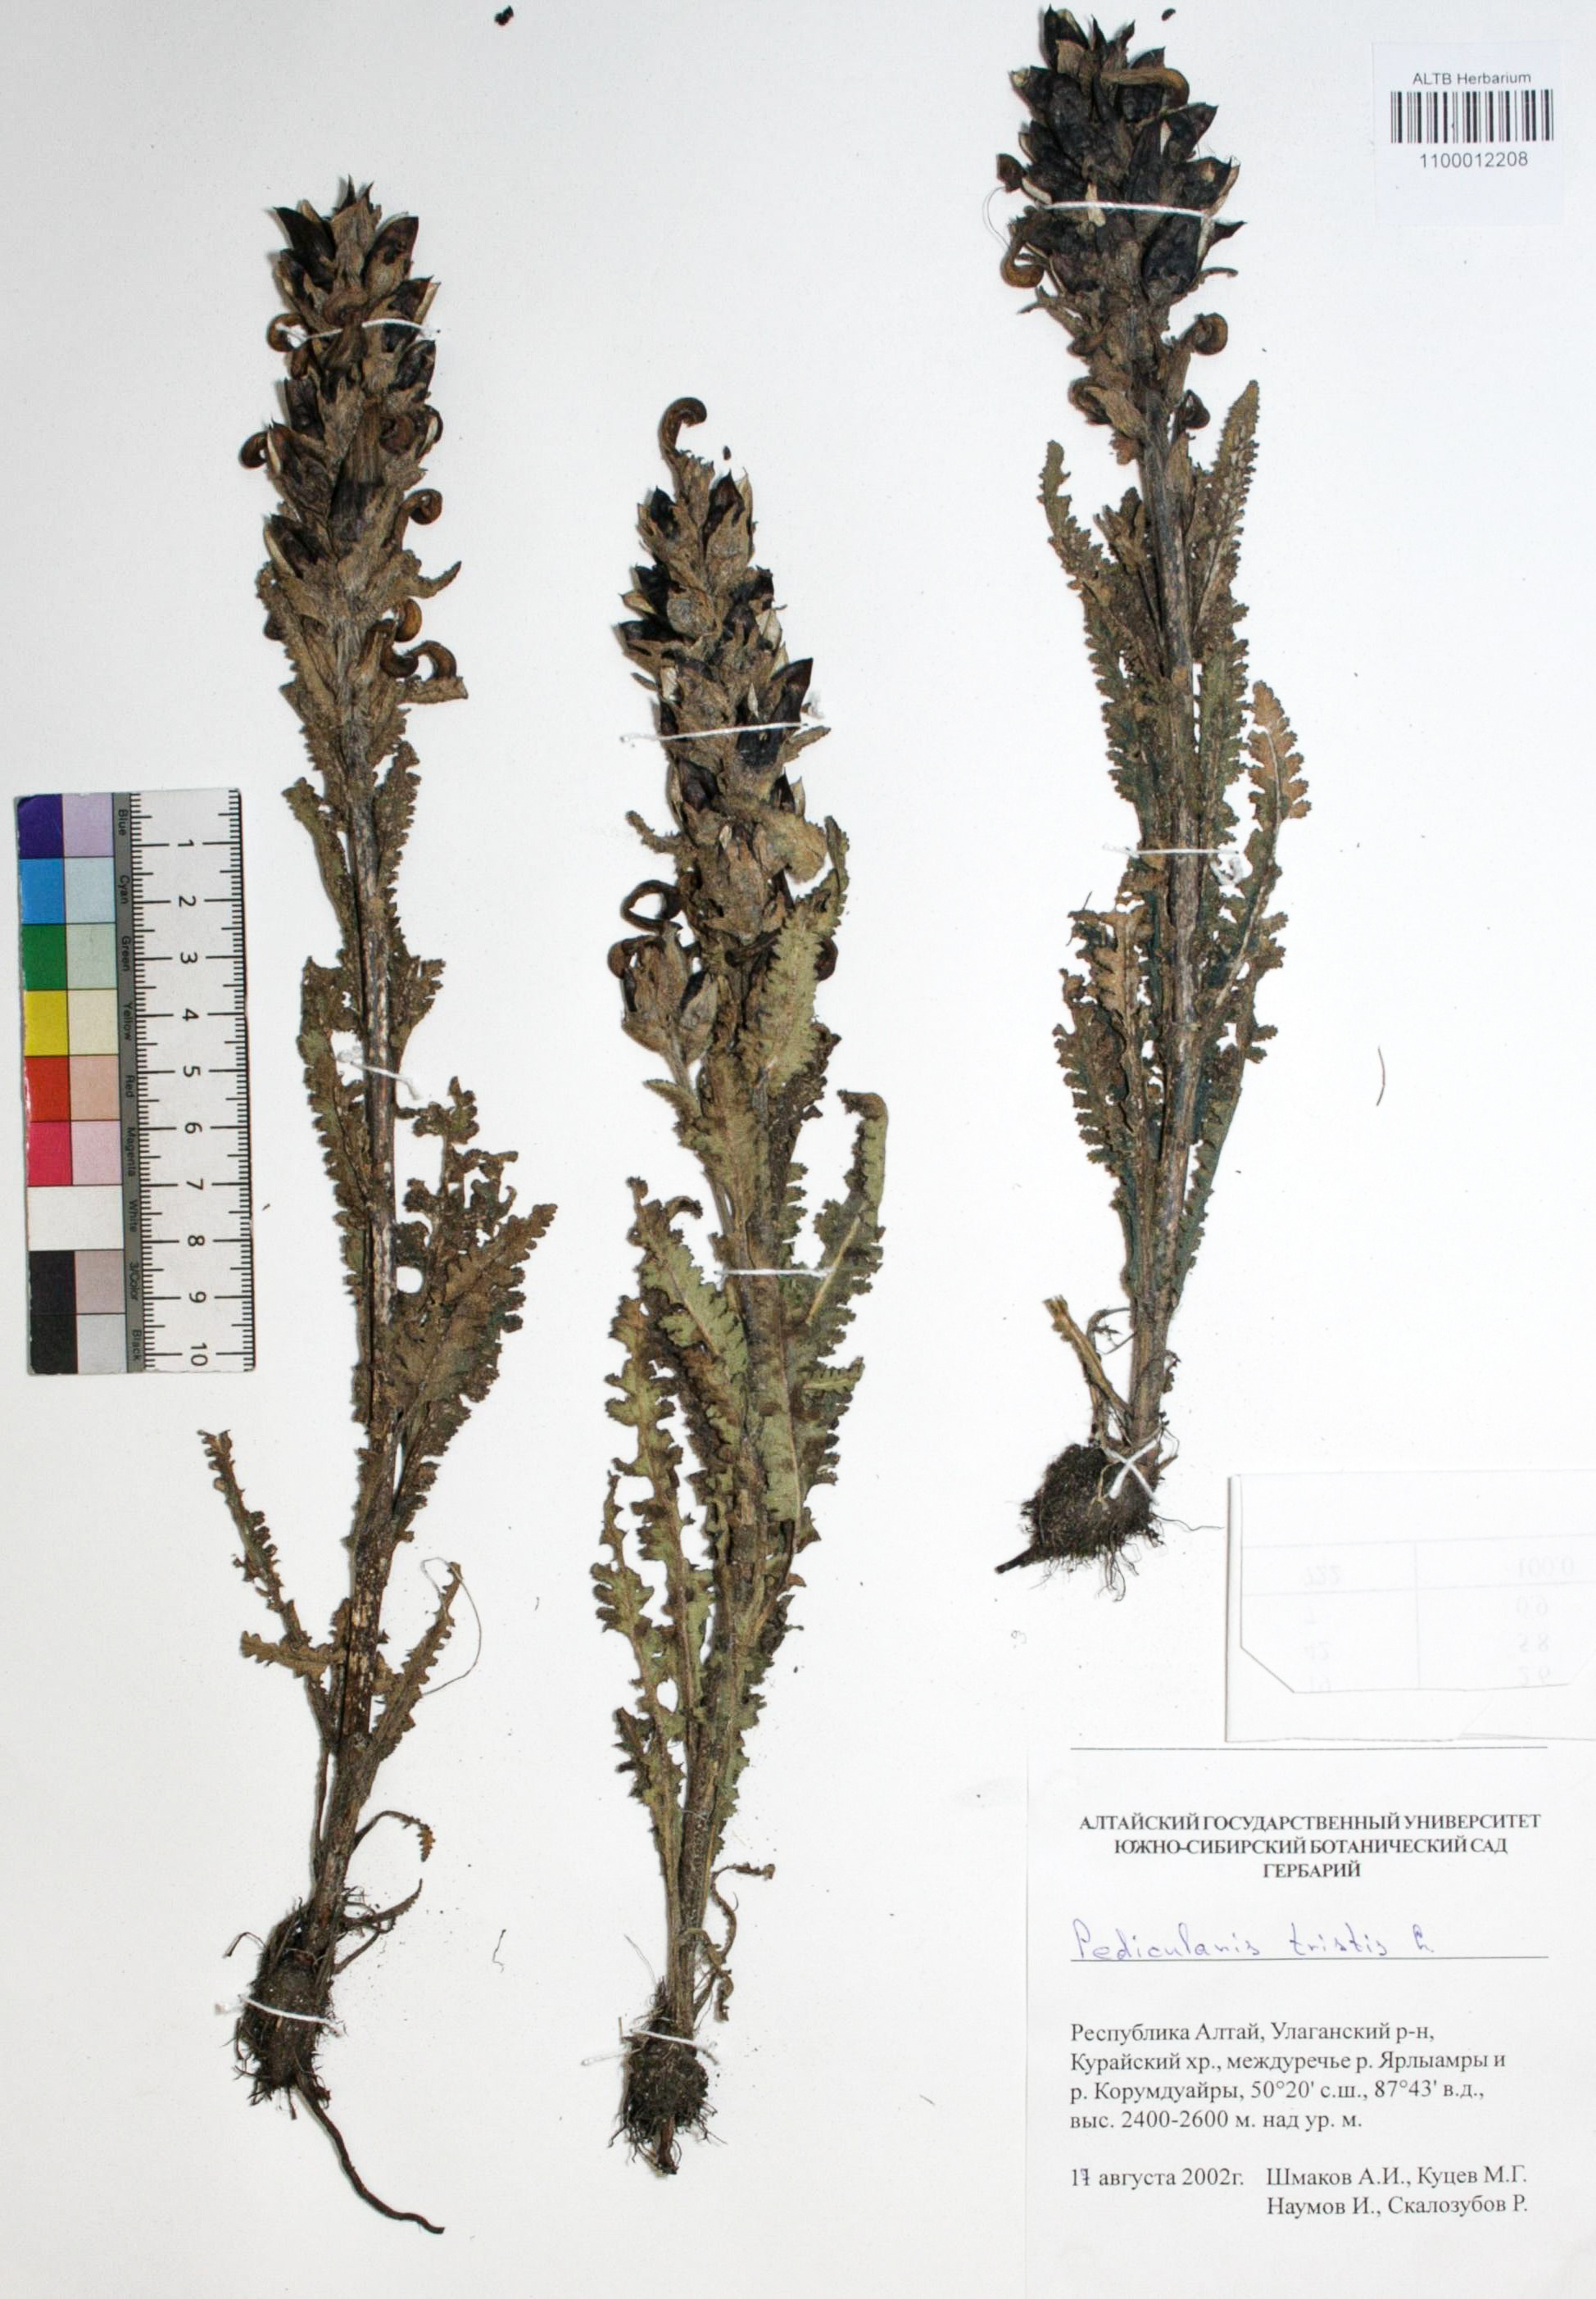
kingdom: Plantae
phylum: Tracheophyta
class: Magnoliopsida
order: Lamiales
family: Orobanchaceae
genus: Pedicularis
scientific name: Pedicularis tristis
